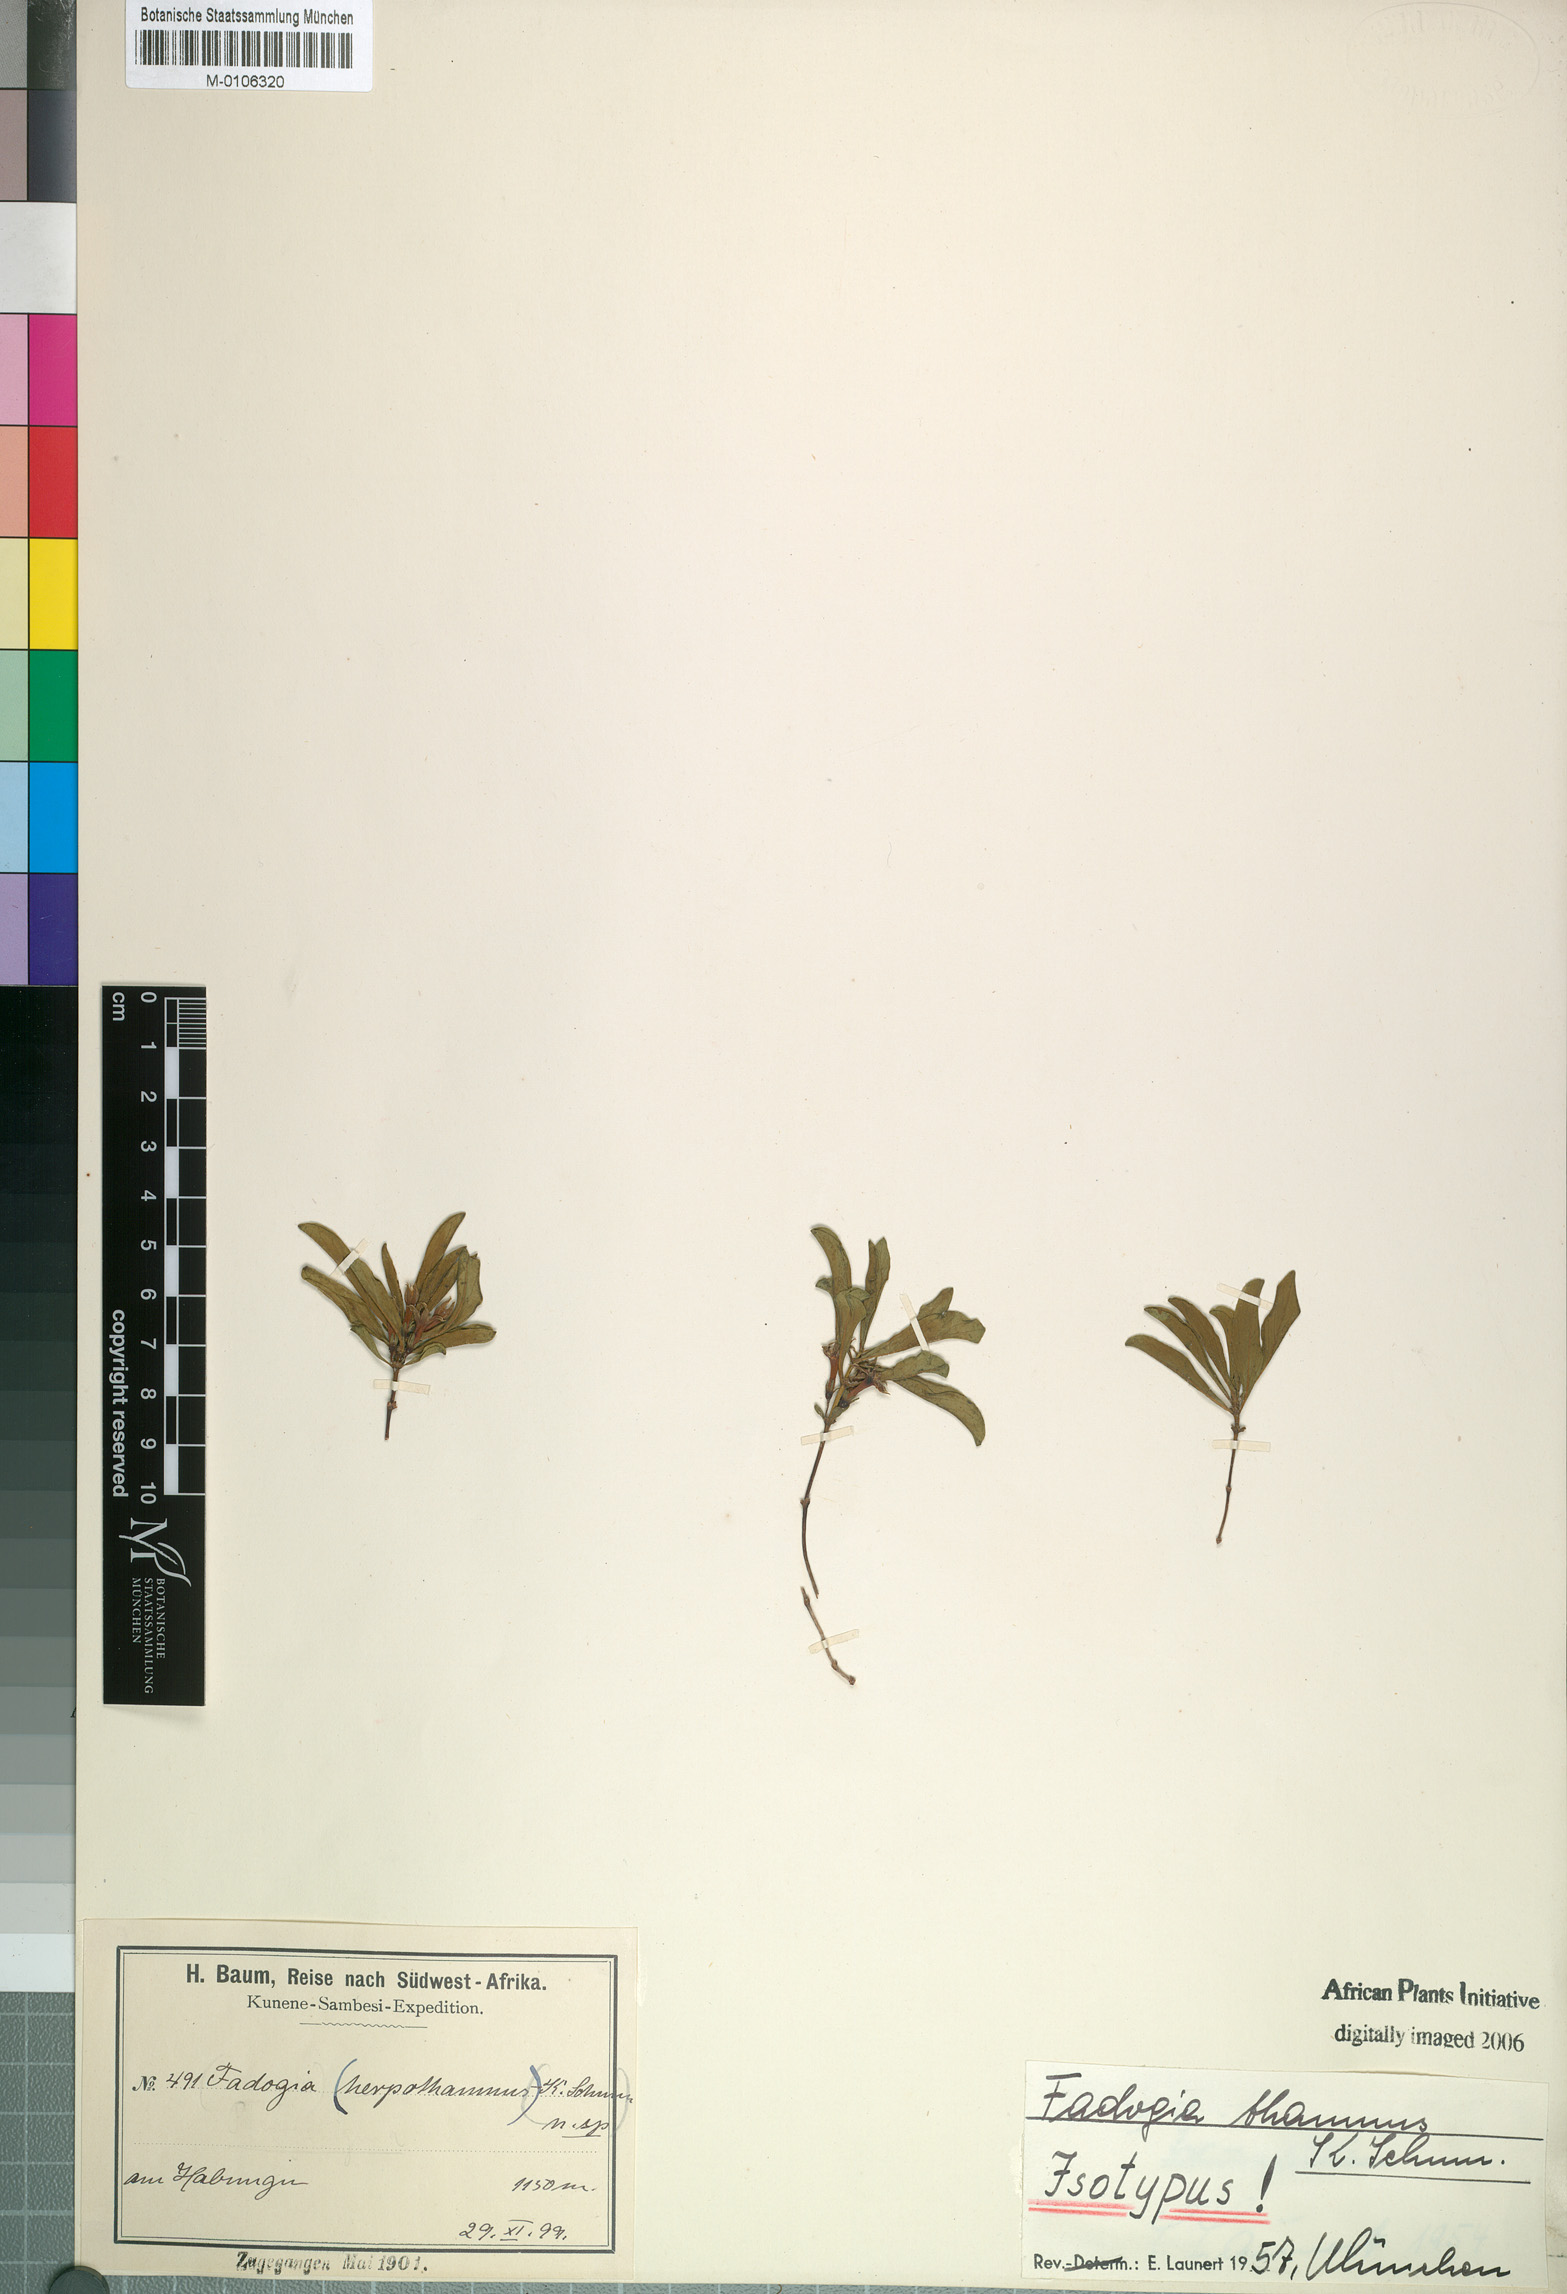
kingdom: Plantae
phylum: Tracheophyta
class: Magnoliopsida
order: Gentianales
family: Rubiaceae
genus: Fadogia
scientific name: Fadogia chlorantha
